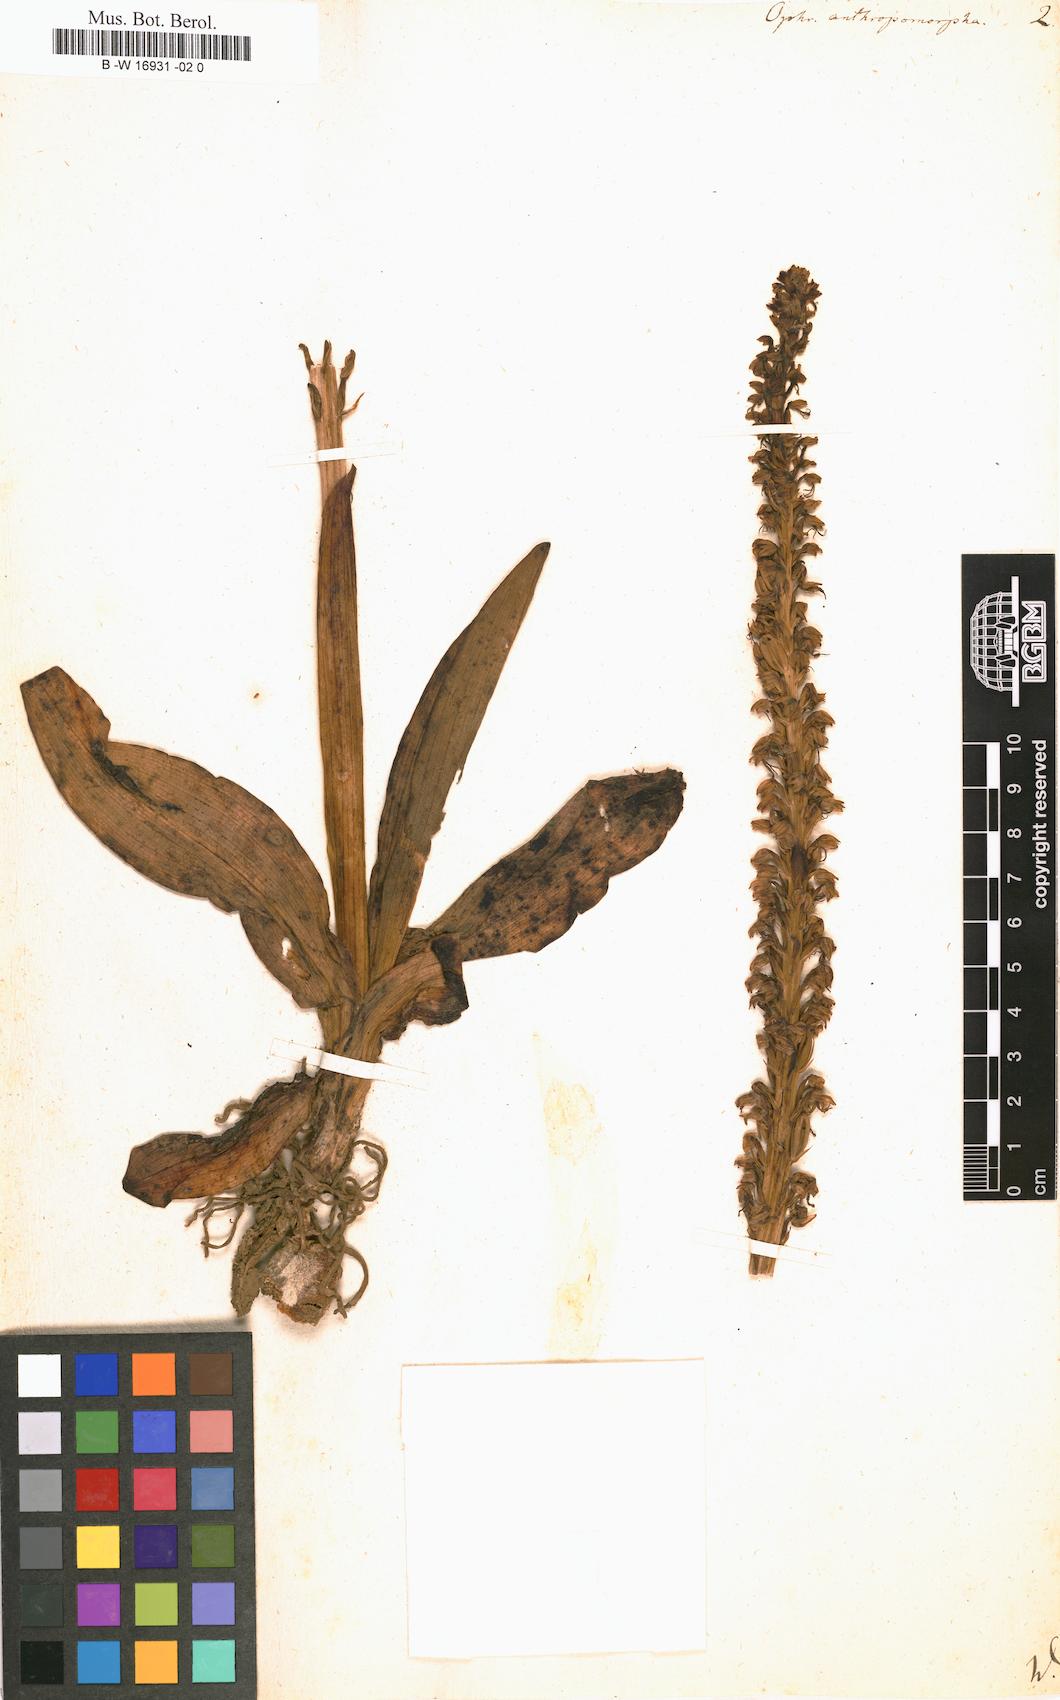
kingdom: Plantae
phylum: Tracheophyta
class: Liliopsida
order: Asparagales
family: Orchidaceae
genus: Orchis
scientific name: Orchis anthropophora
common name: Man orchid
